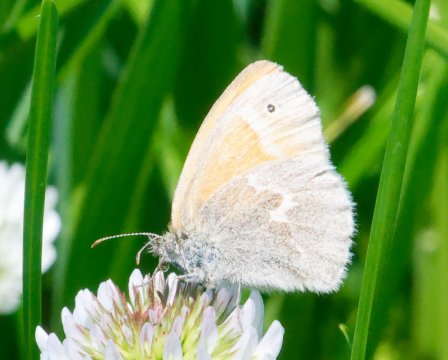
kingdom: Animalia
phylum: Arthropoda
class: Insecta
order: Lepidoptera
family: Nymphalidae
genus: Coenonympha
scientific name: Coenonympha california
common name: California Ringlet
